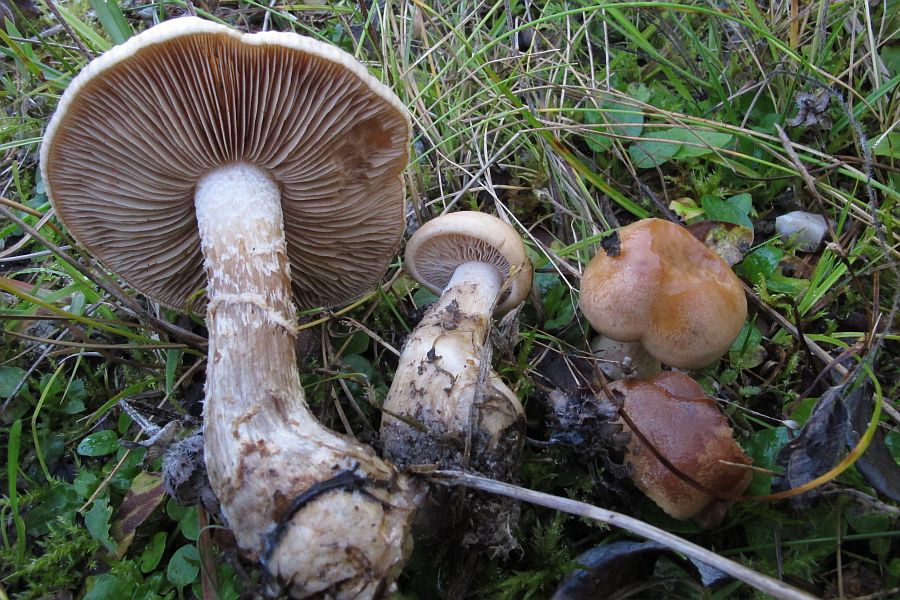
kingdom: Fungi
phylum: Basidiomycota
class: Agaricomycetes
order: Agaricales
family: Hymenogastraceae
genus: Hebeloma
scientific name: Hebeloma radicosum
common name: pælerods-tåreblad
